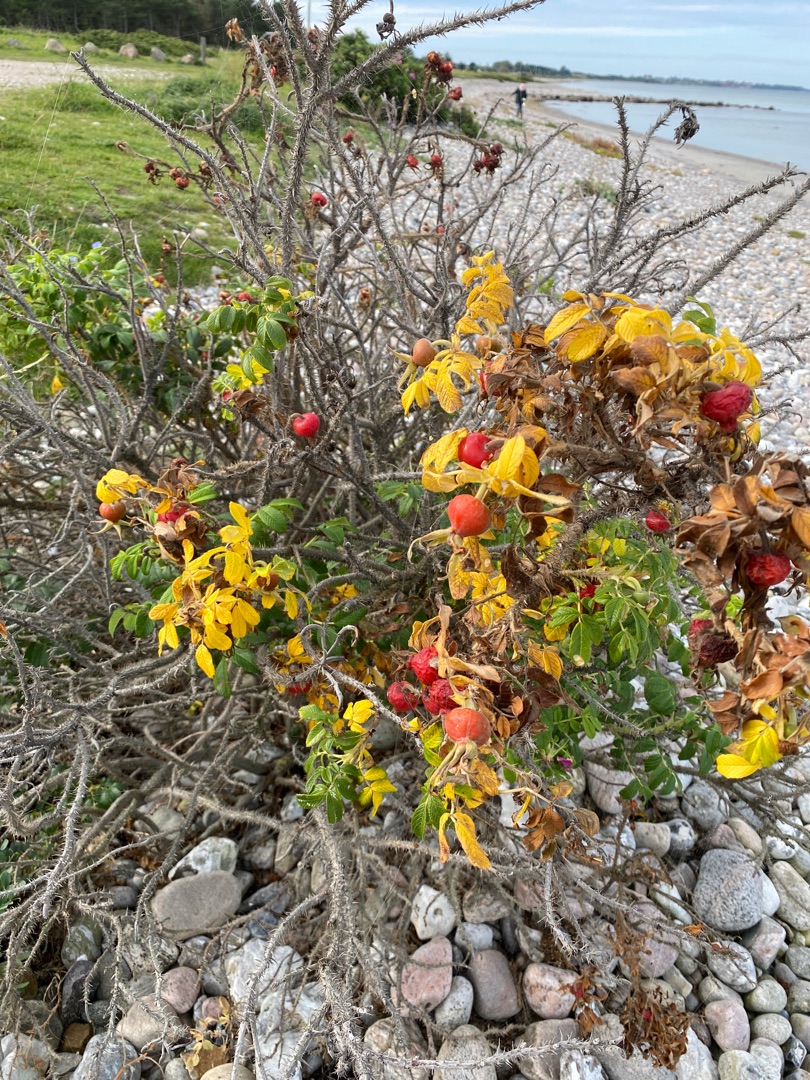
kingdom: Plantae
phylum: Tracheophyta
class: Magnoliopsida
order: Rosales
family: Rosaceae
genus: Rosa
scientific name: Rosa rugosa
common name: Rynket rose
